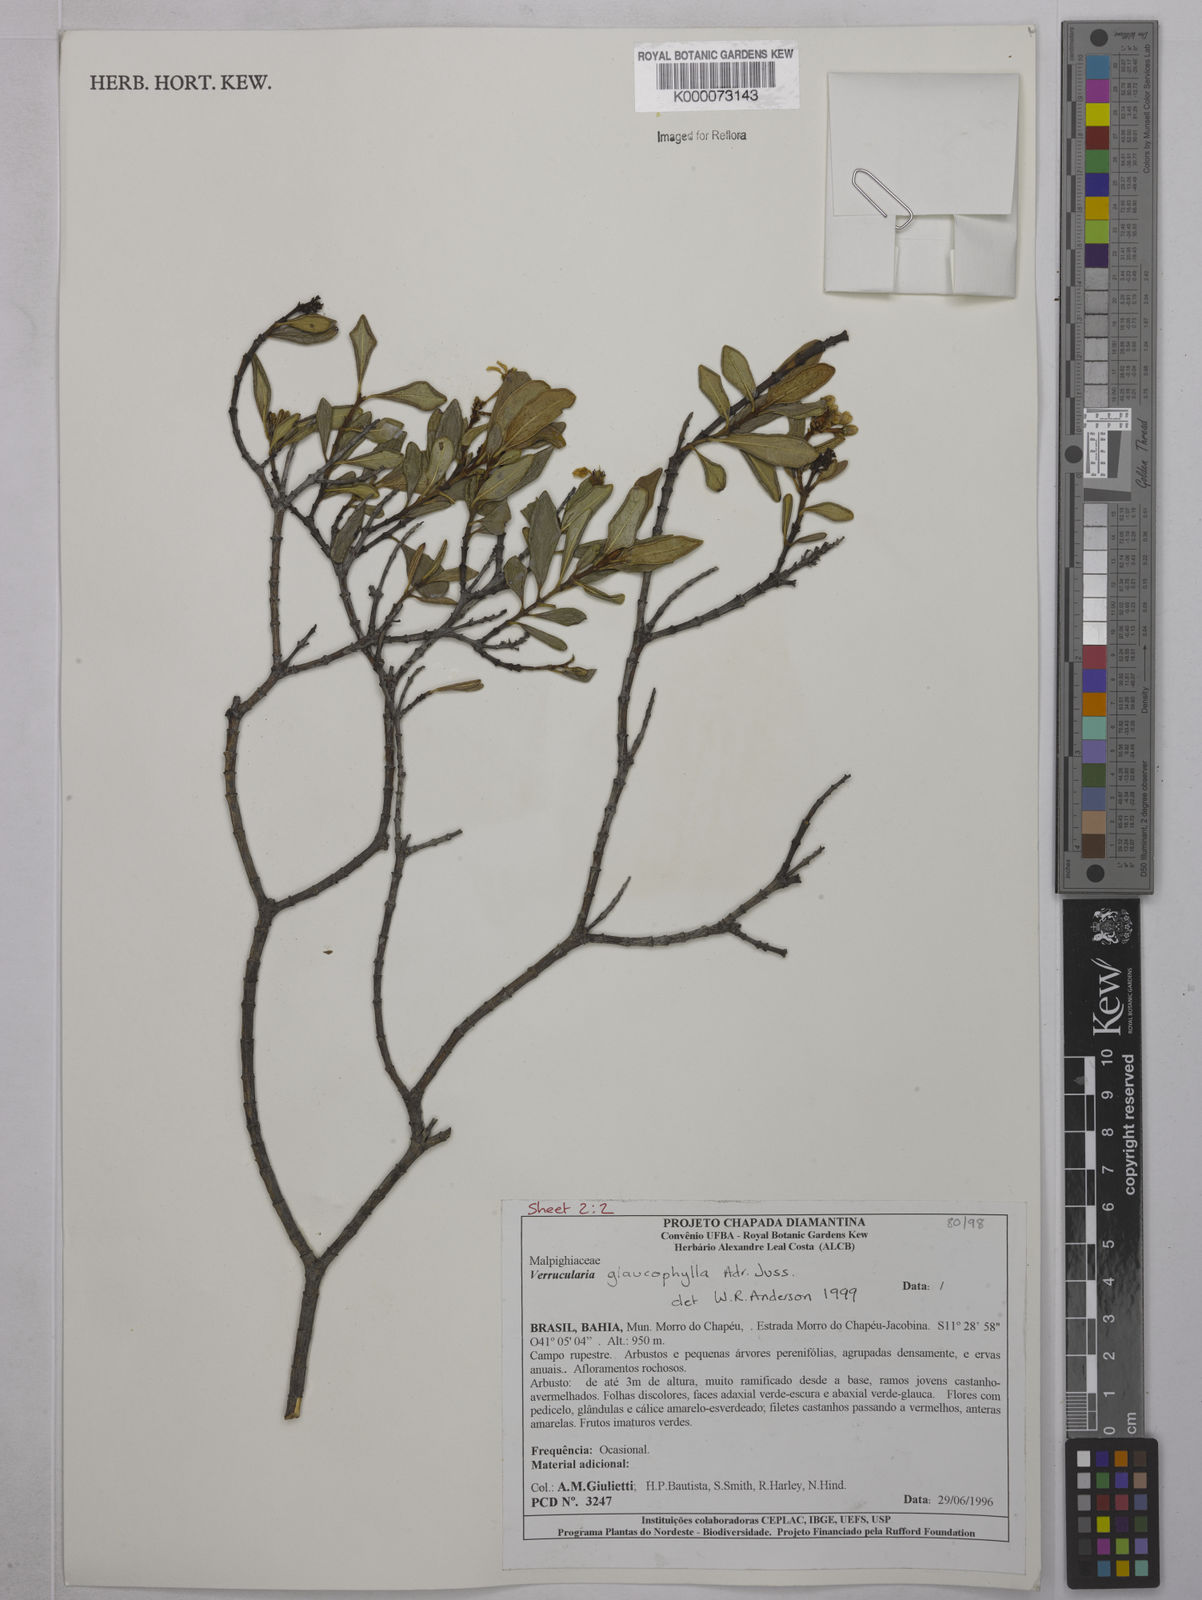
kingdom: Plantae
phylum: Tracheophyta
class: Magnoliopsida
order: Malpighiales
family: Malpighiaceae
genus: Verrucularina
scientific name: Verrucularina glaucophylla
